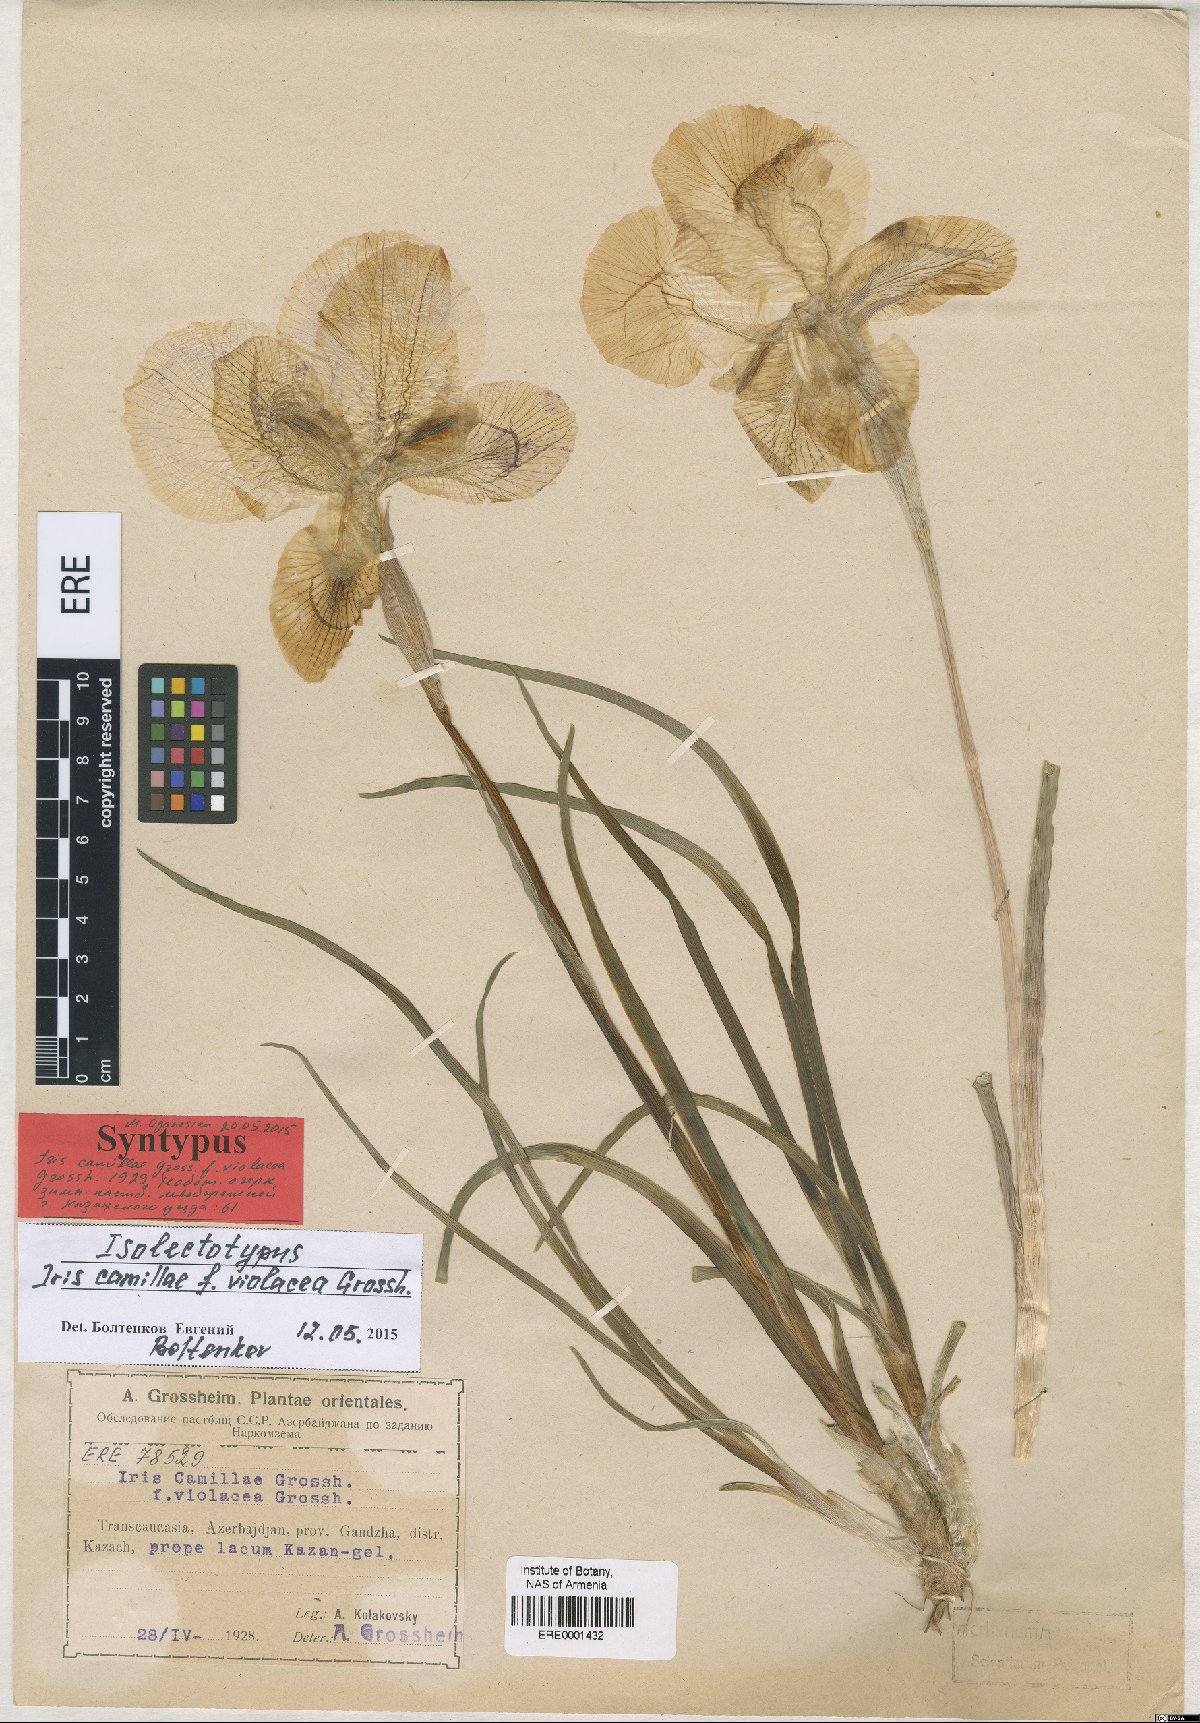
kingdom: Plantae
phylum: Tracheophyta
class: Liliopsida
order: Asparagales
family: Iridaceae
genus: Iris
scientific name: Iris camillae
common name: Kamilla's iris
